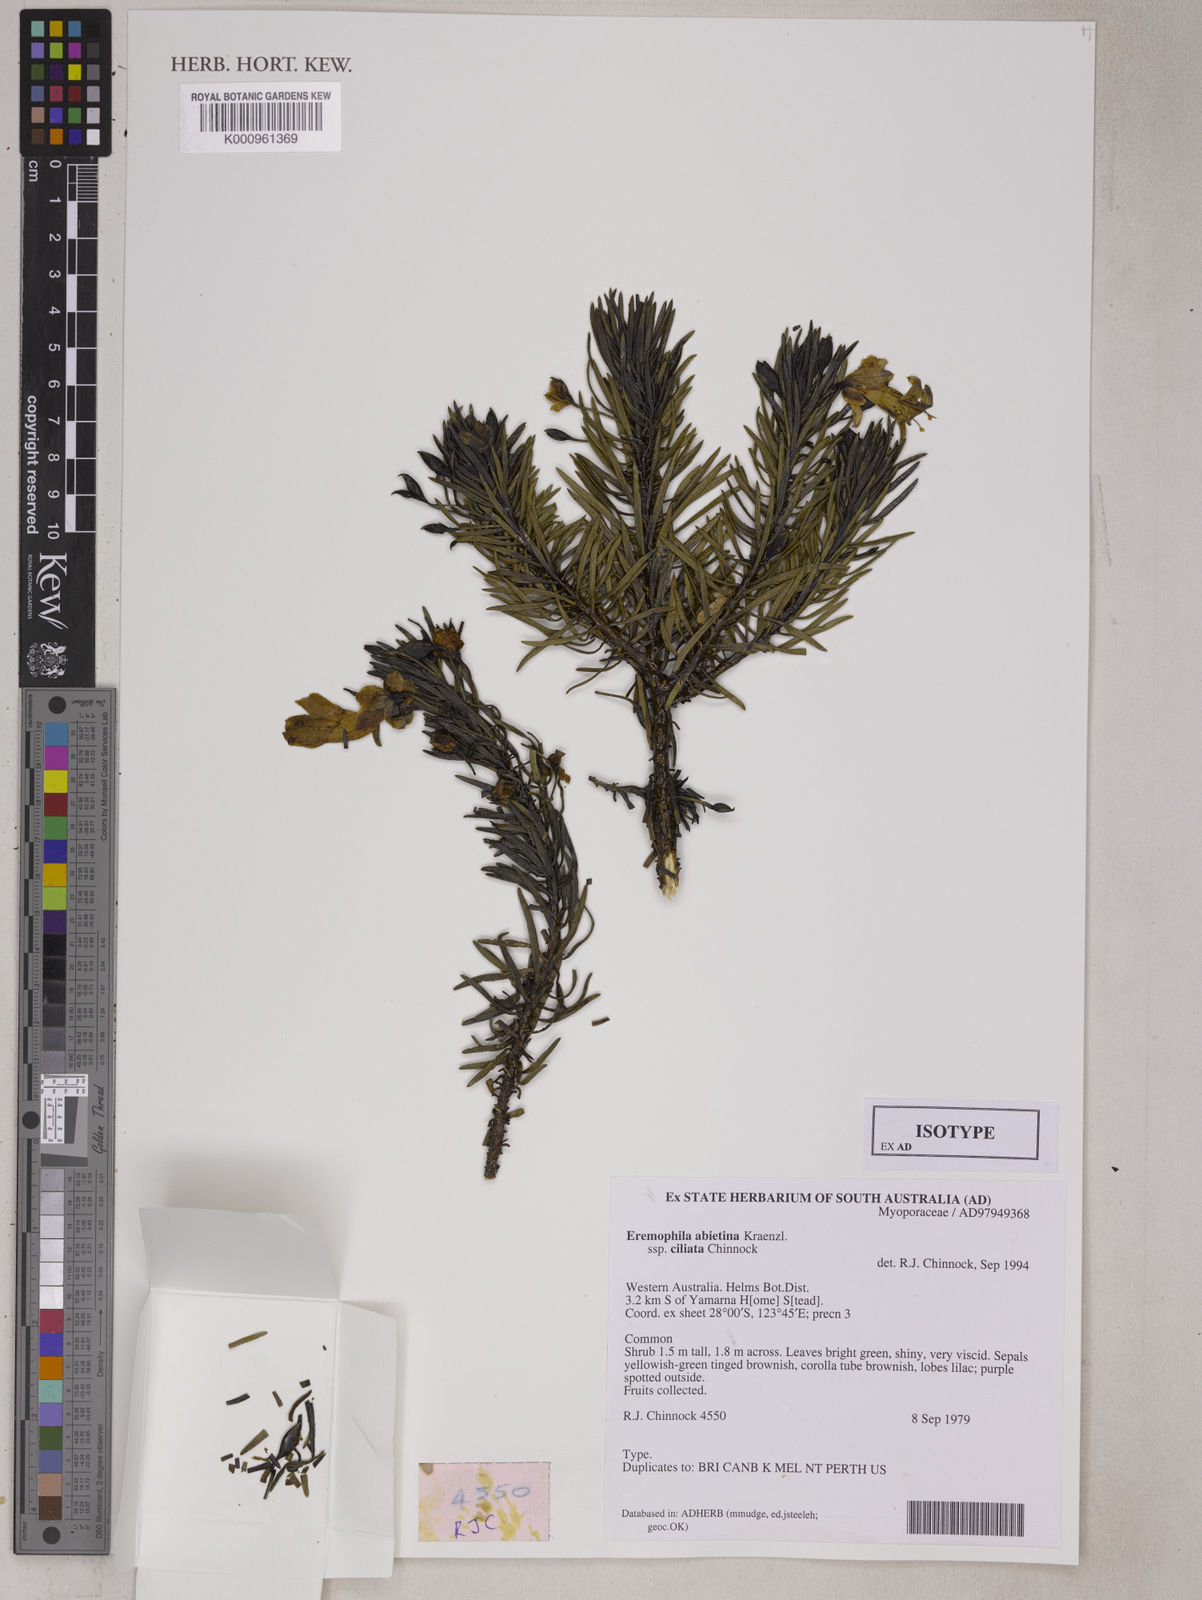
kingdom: Plantae
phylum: Tracheophyta
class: Magnoliopsida
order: Lamiales
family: Scrophulariaceae
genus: Eremophila
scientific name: Eremophila abietina
